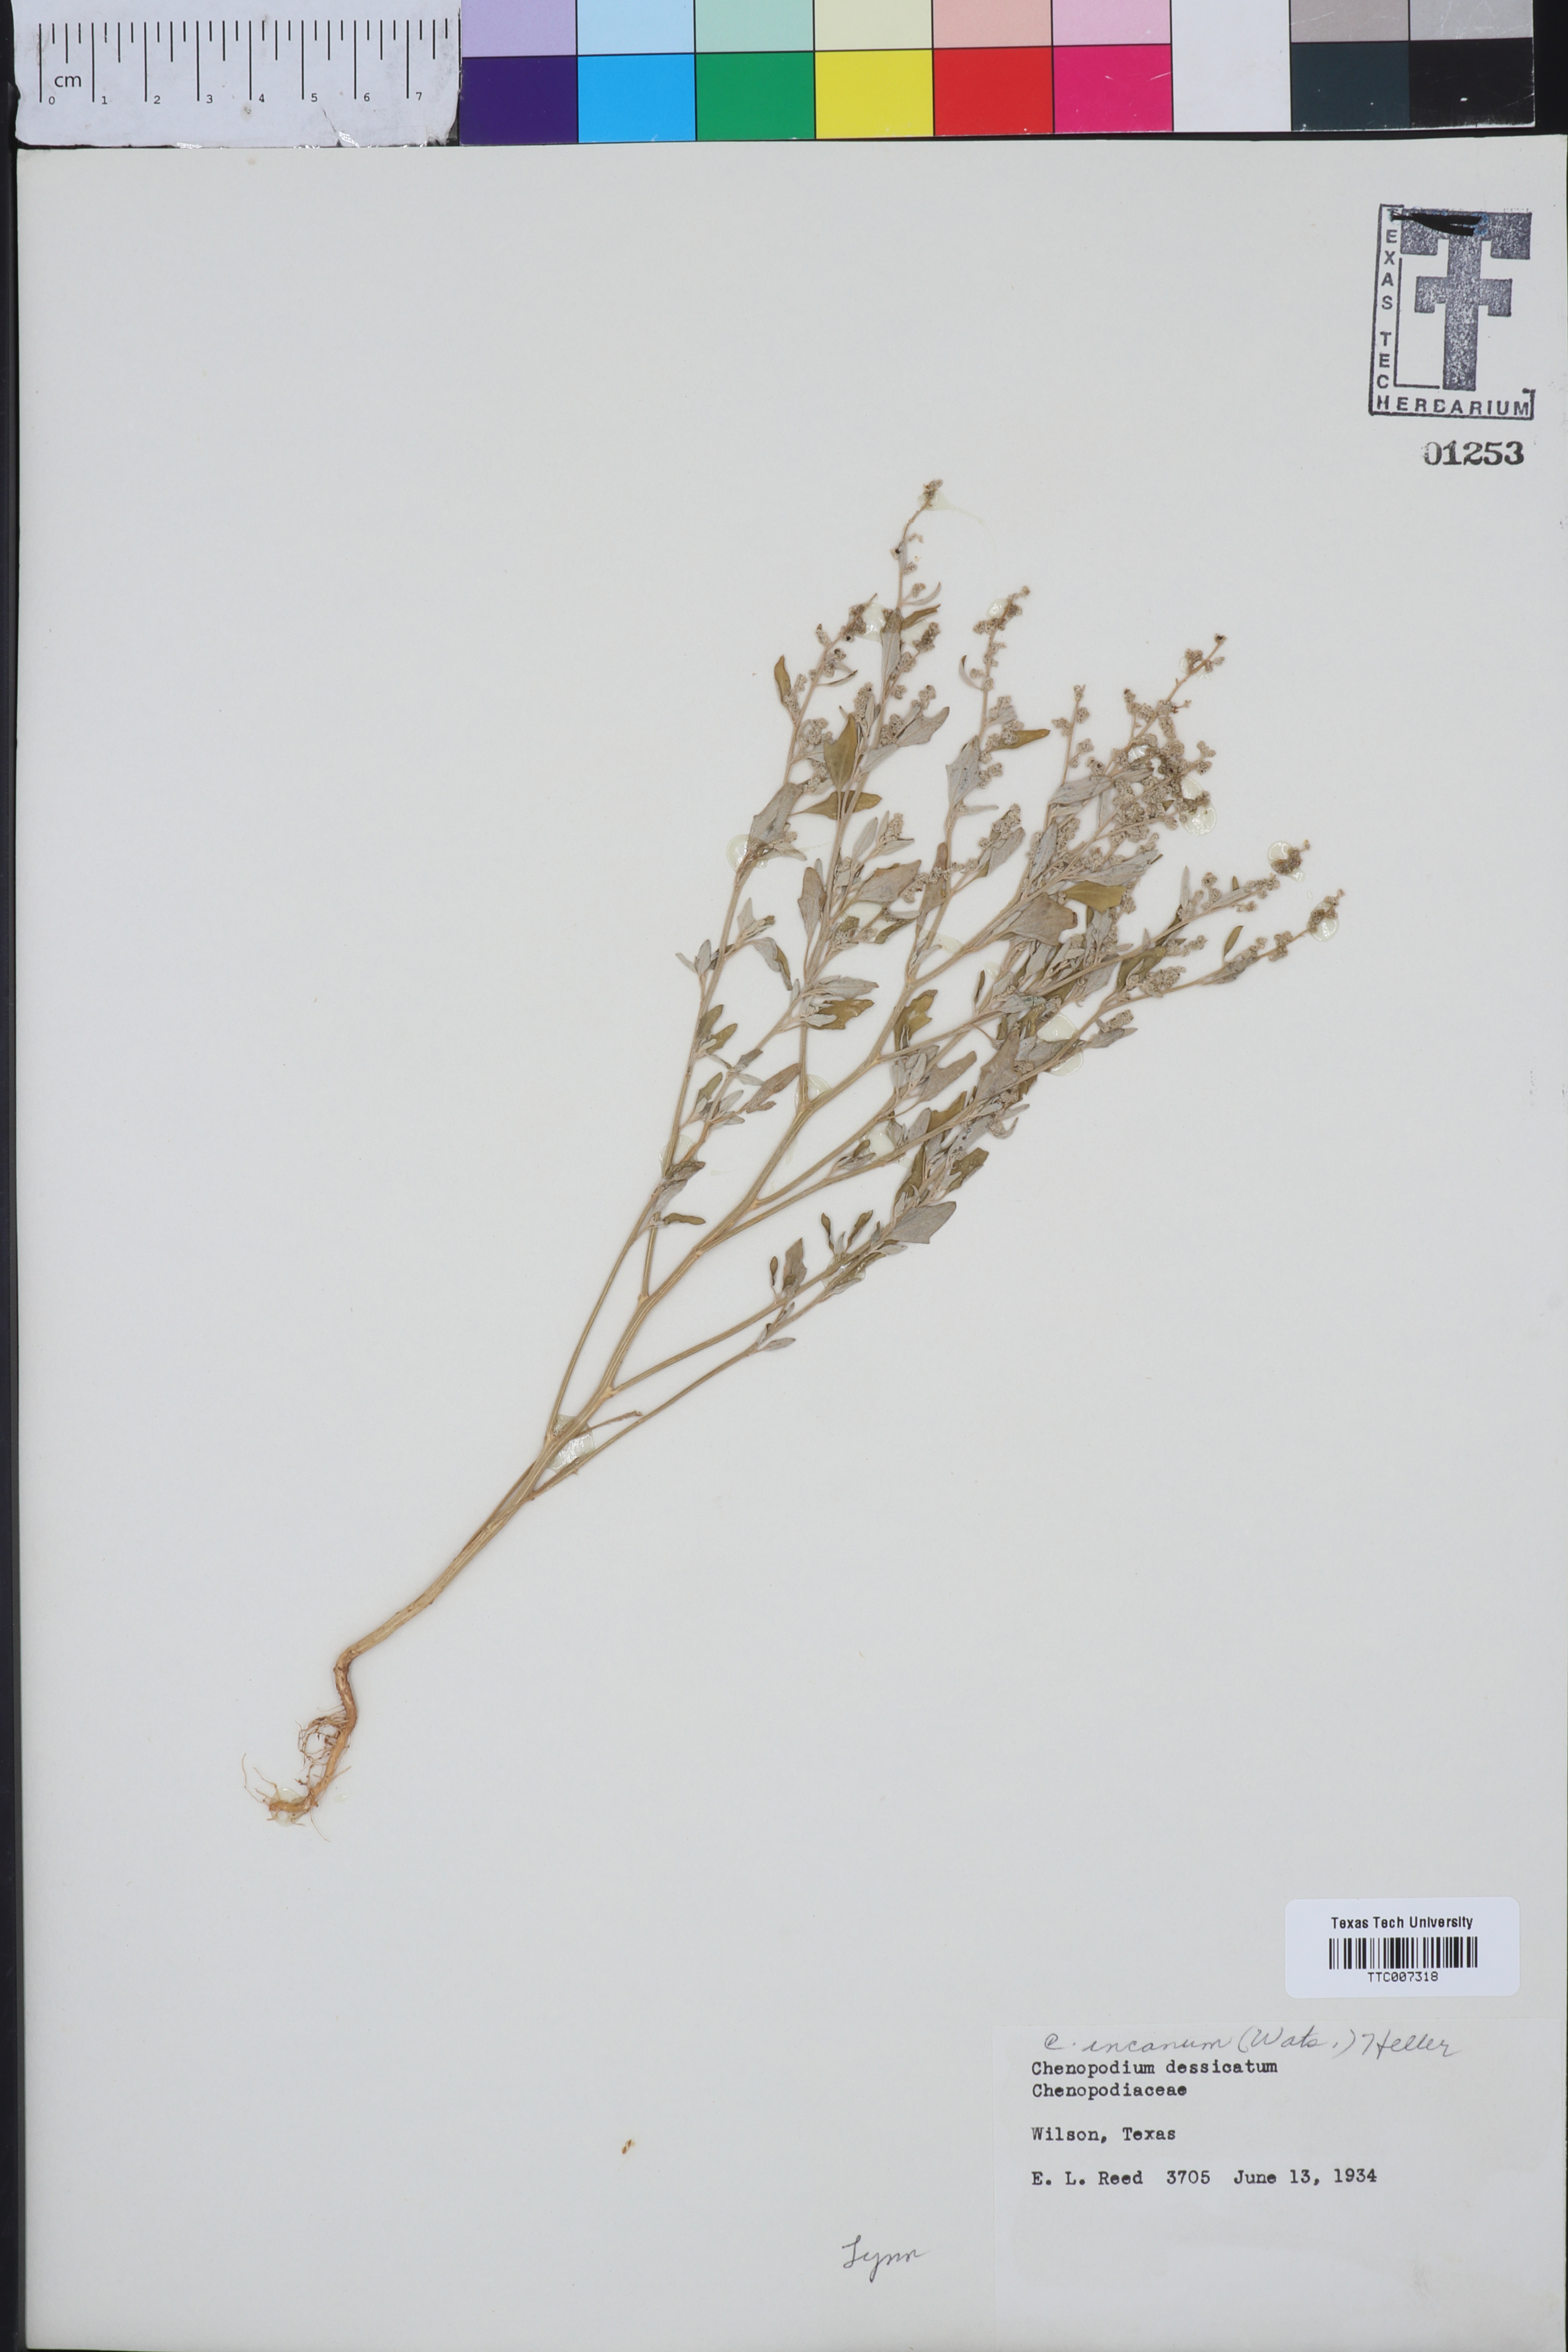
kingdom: Plantae
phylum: Tracheophyta
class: Magnoliopsida
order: Caryophyllales
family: Amaranthaceae
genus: Chenopodium
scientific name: Chenopodium incanum
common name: Hoary goosefoot
